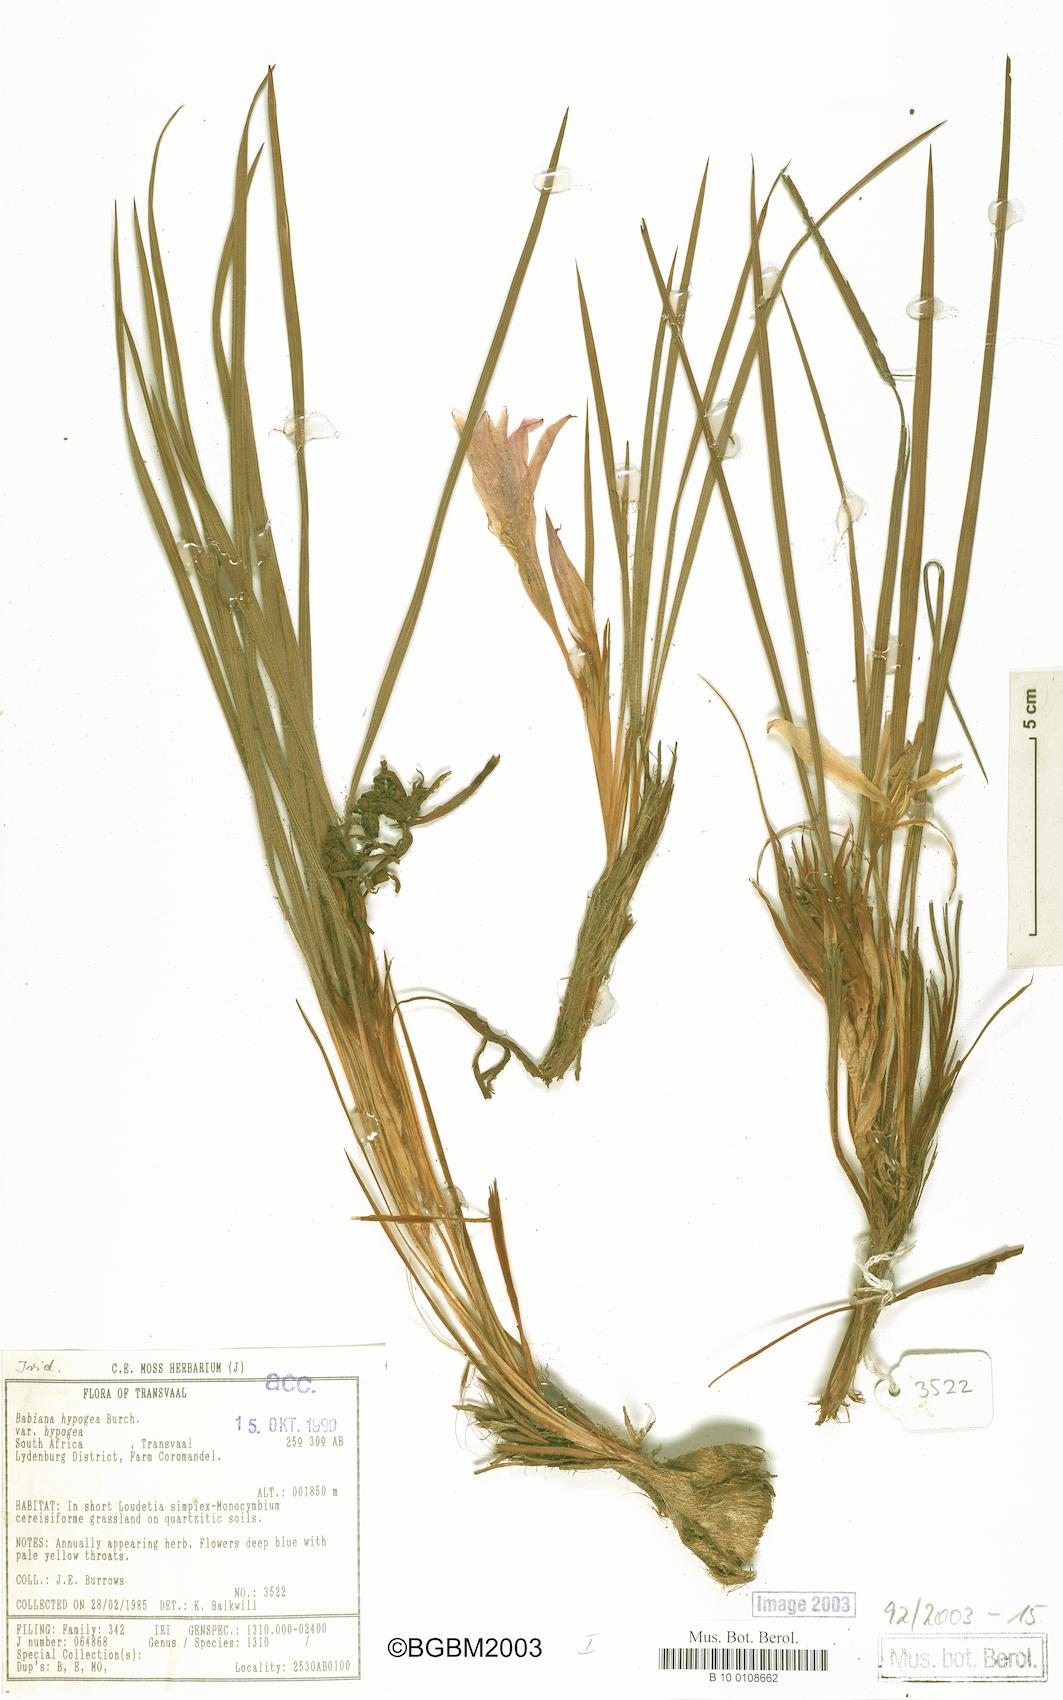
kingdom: Plantae
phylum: Tracheophyta
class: Liliopsida
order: Asparagales
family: Iridaceae
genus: Babiana
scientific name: Babiana hypogaea
